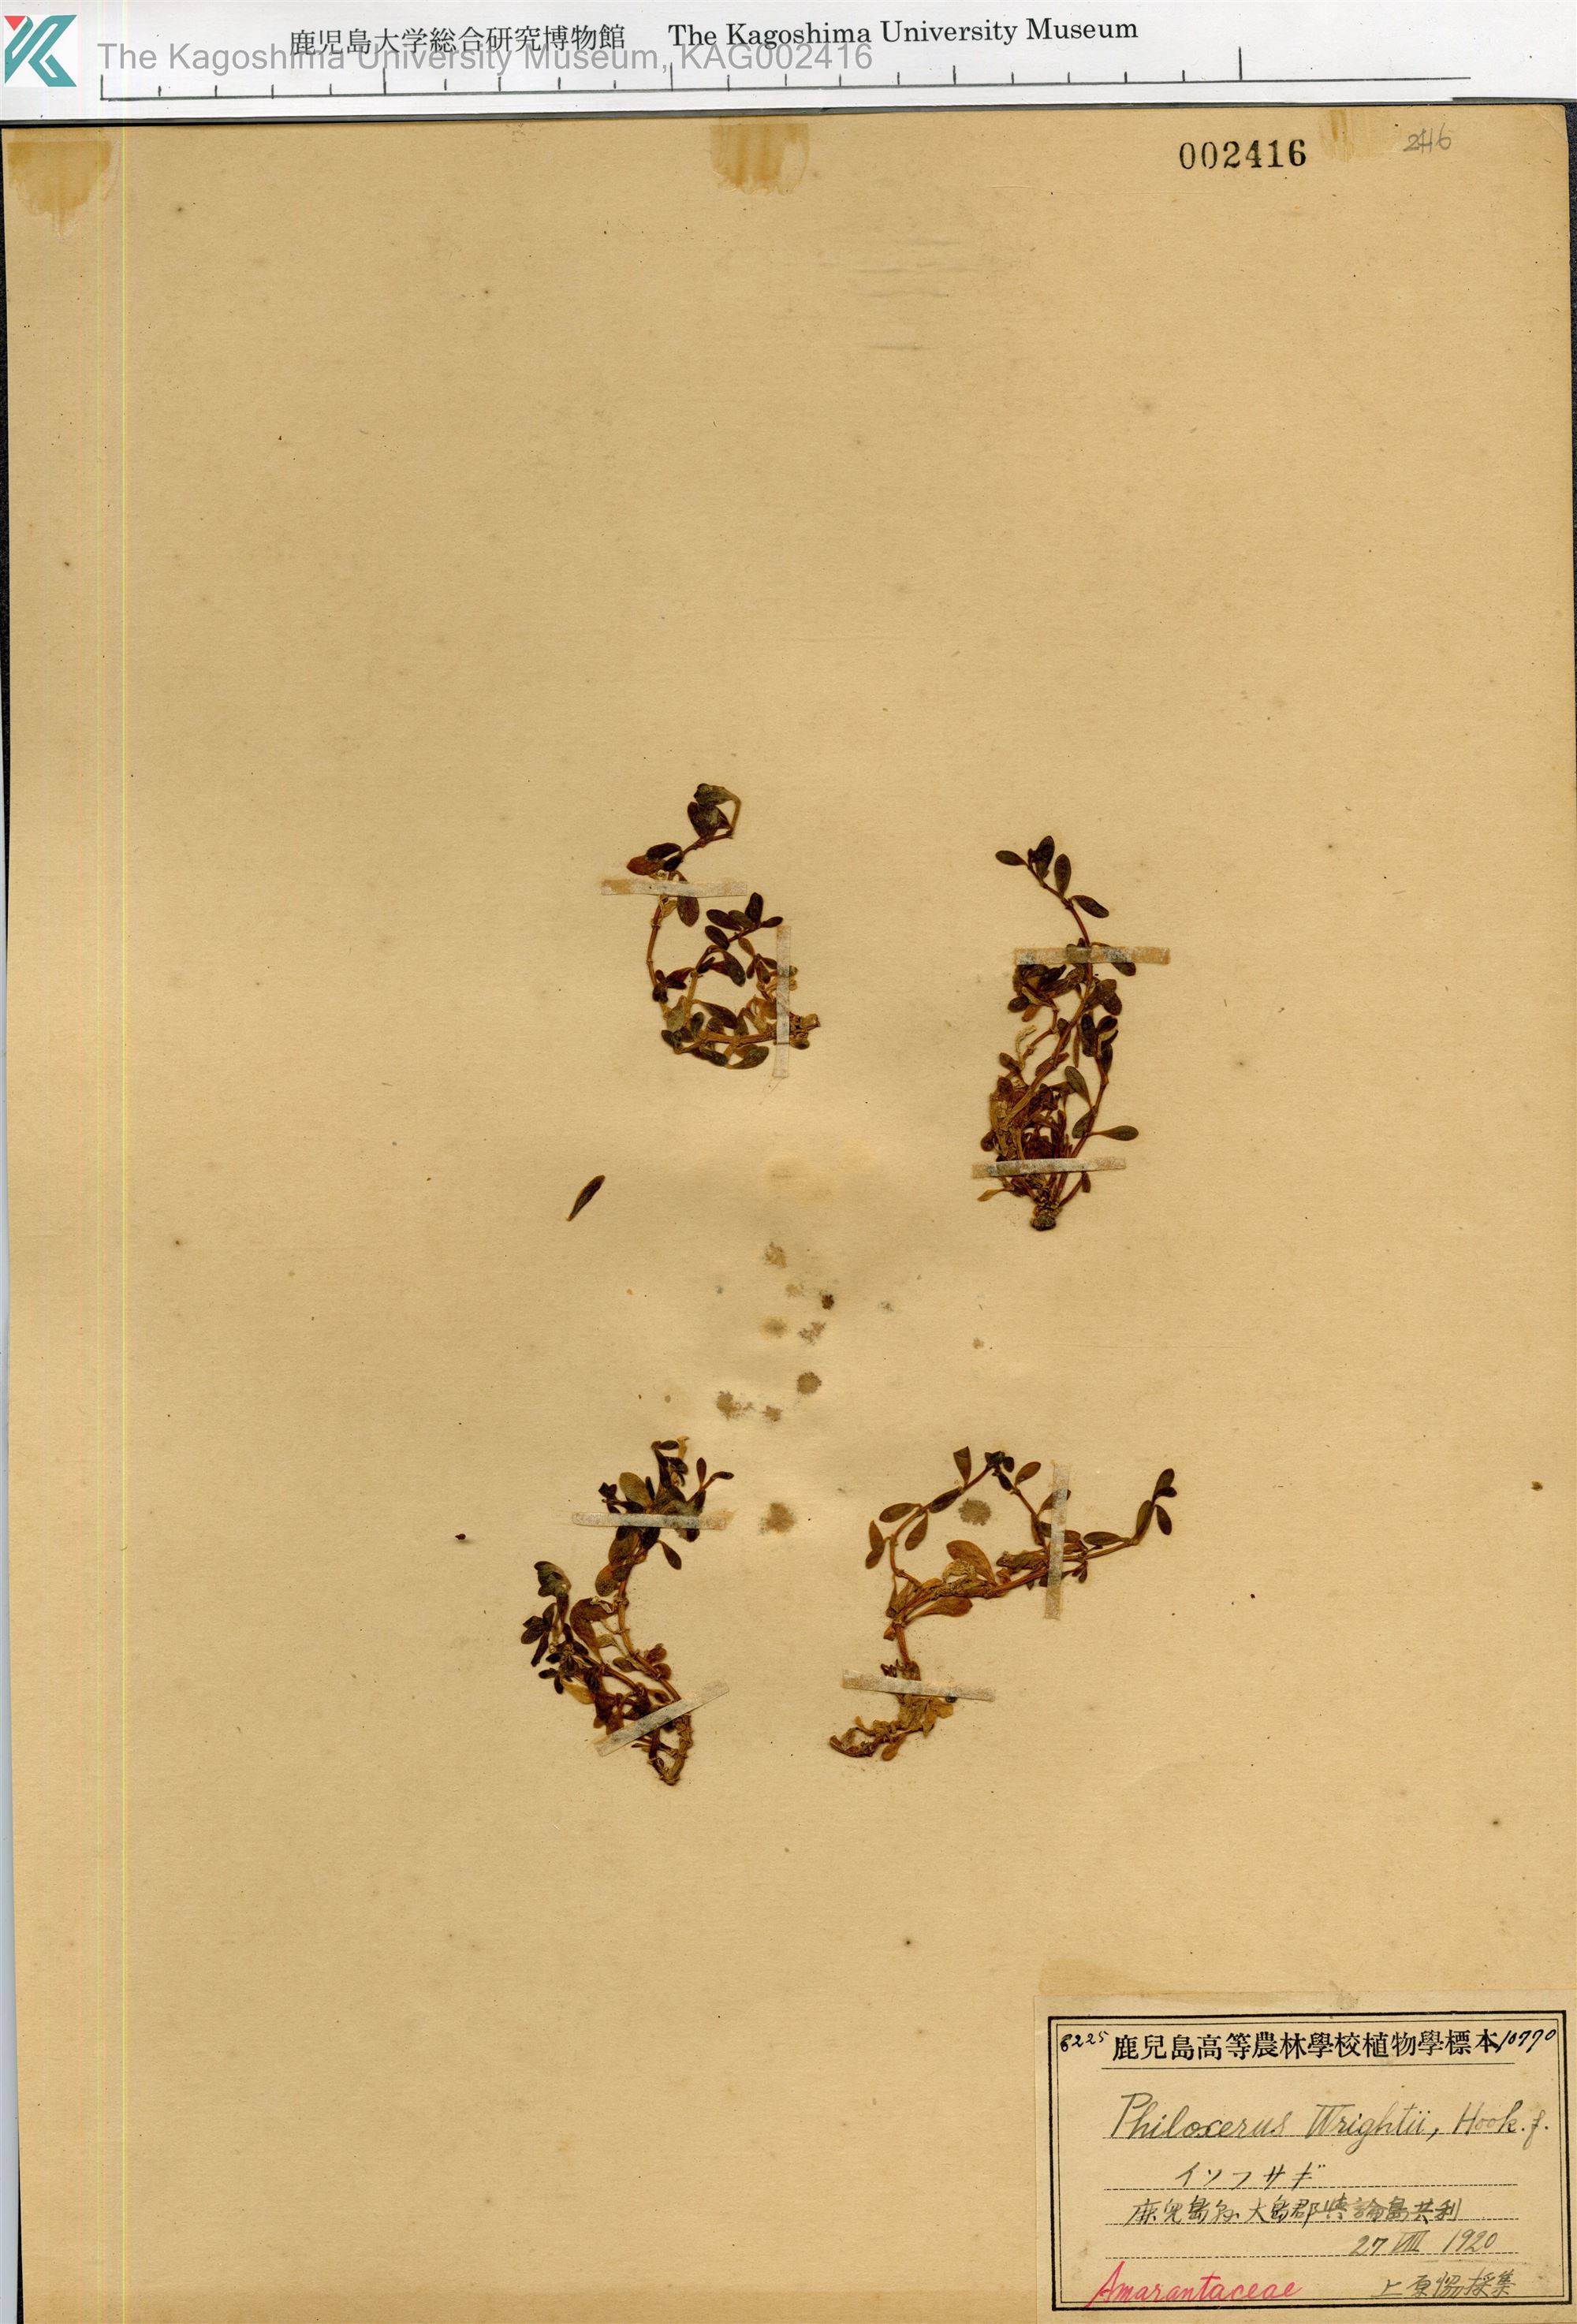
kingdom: Plantae
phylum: Tracheophyta
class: Magnoliopsida
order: Caryophyllales
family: Amaranthaceae
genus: Gomphrena
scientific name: Gomphrena wrightii
